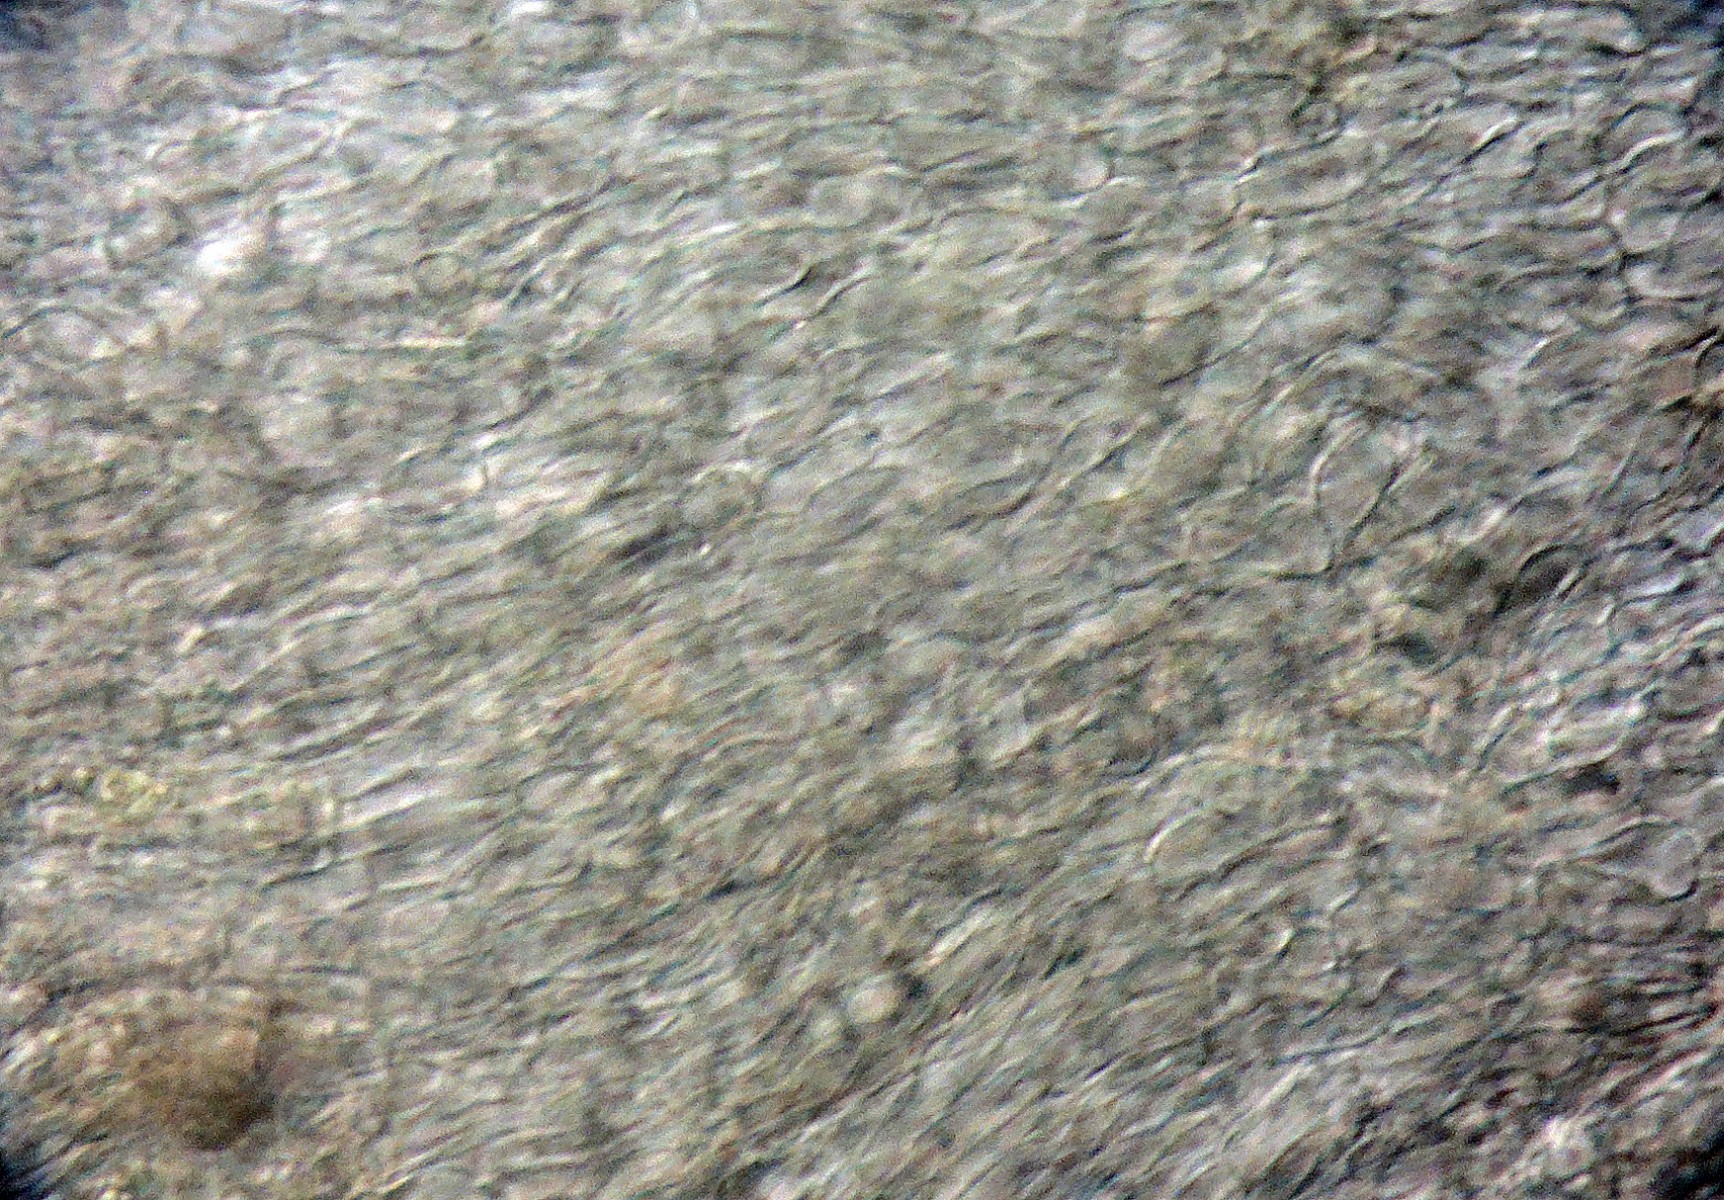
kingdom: Fungi
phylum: Ascomycota
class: Leotiomycetes
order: Helotiales
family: Pezizellaceae
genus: Calycellina
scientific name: Calycellina ochracea
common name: liden hårskive
